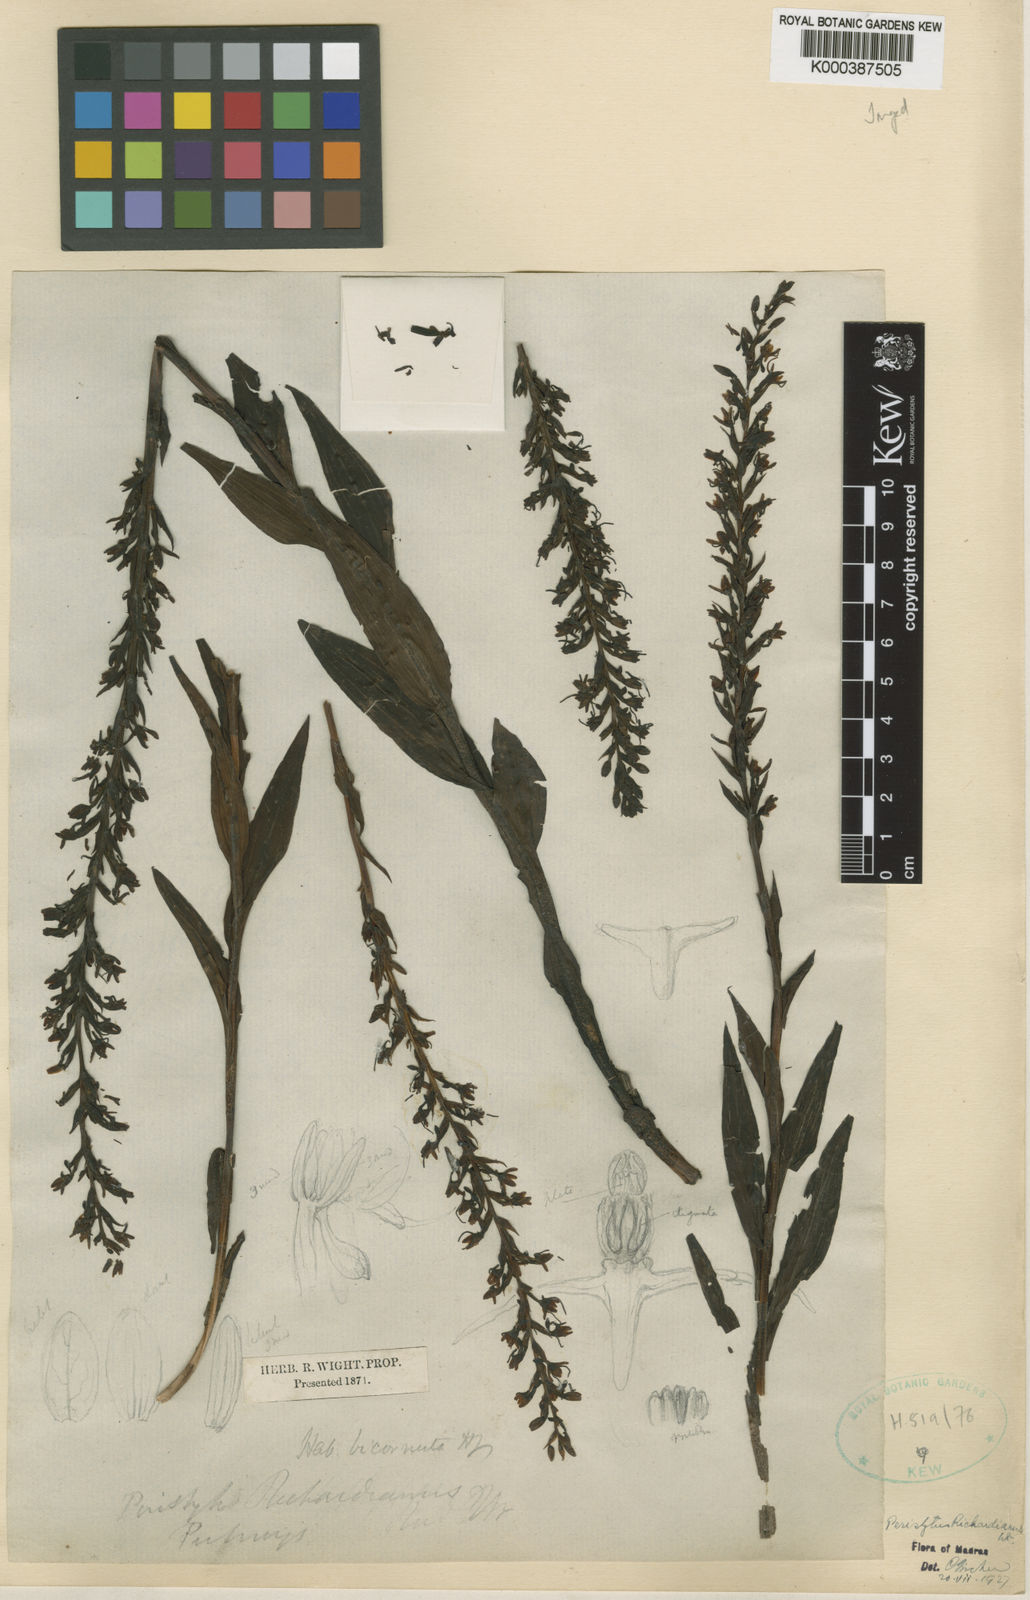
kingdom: Plantae
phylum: Tracheophyta
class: Liliopsida
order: Asparagales
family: Orchidaceae
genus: Peristylus
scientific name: Peristylus richardianus
